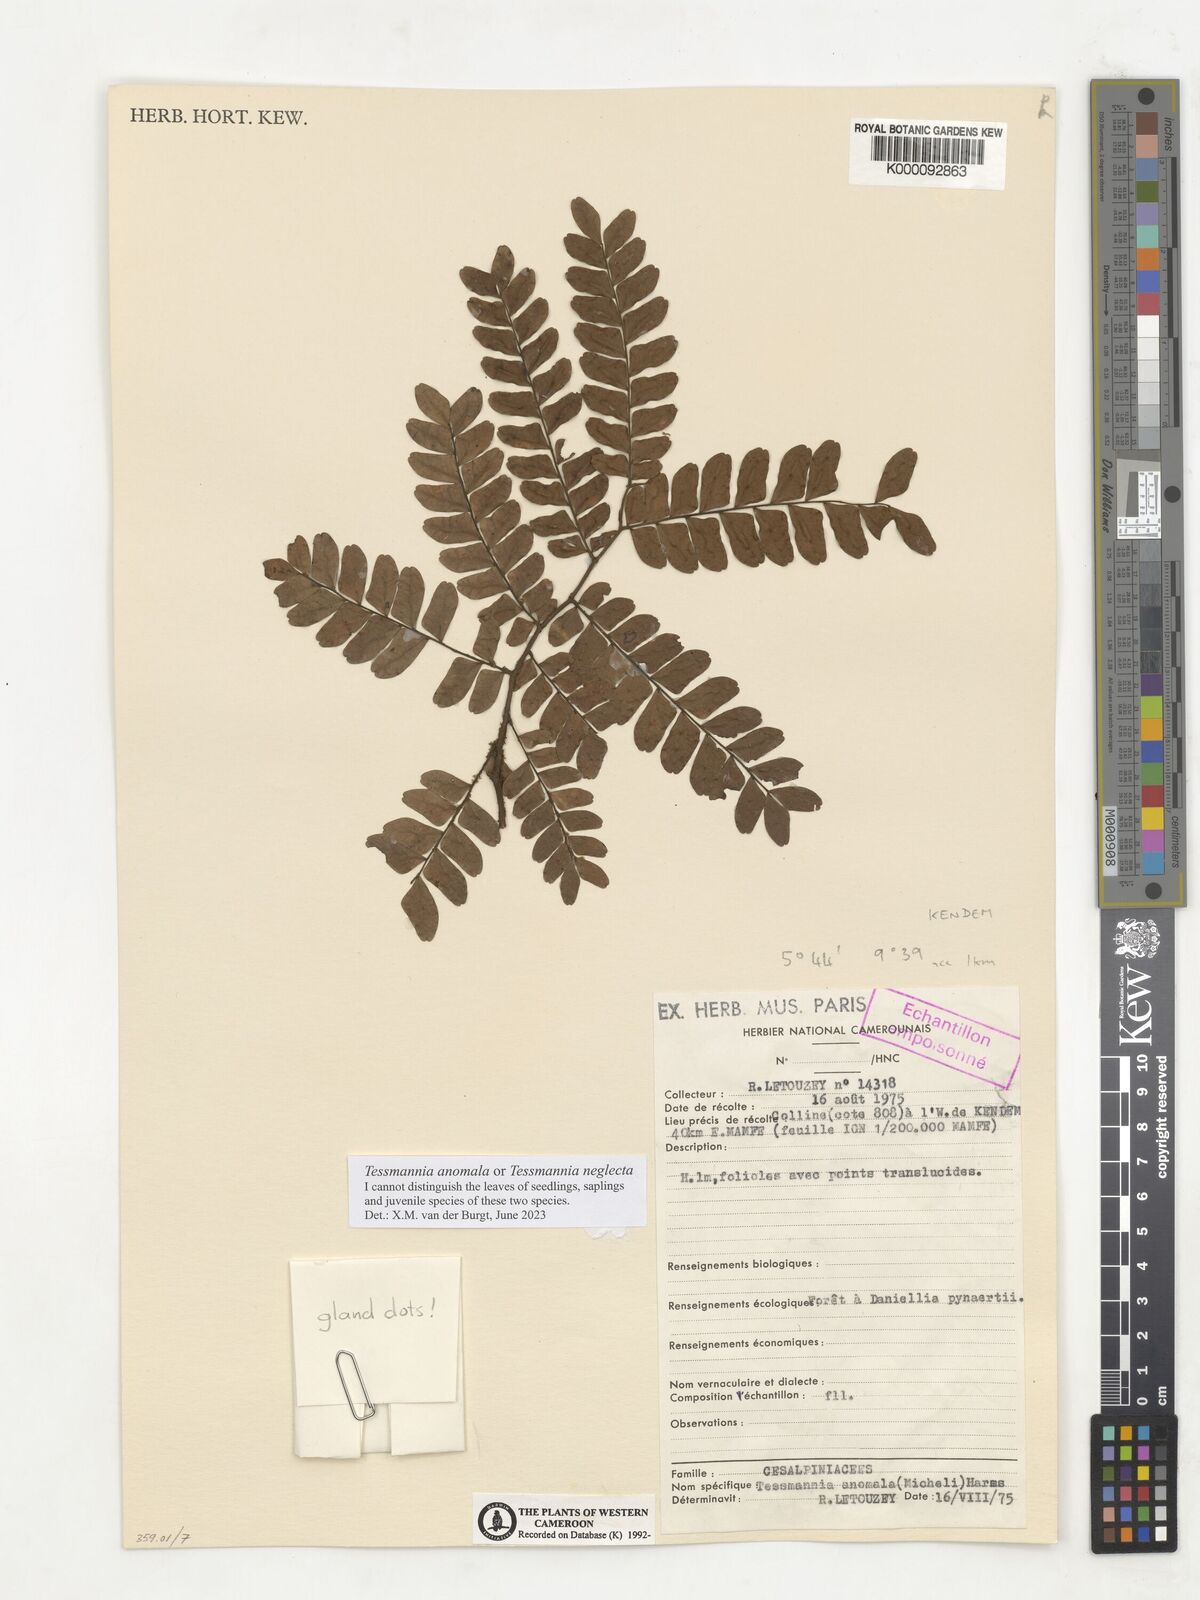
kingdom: Plantae
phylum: Tracheophyta
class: Magnoliopsida
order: Fabales
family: Fabaceae
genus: Tessmannia
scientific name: Tessmannia anomala
